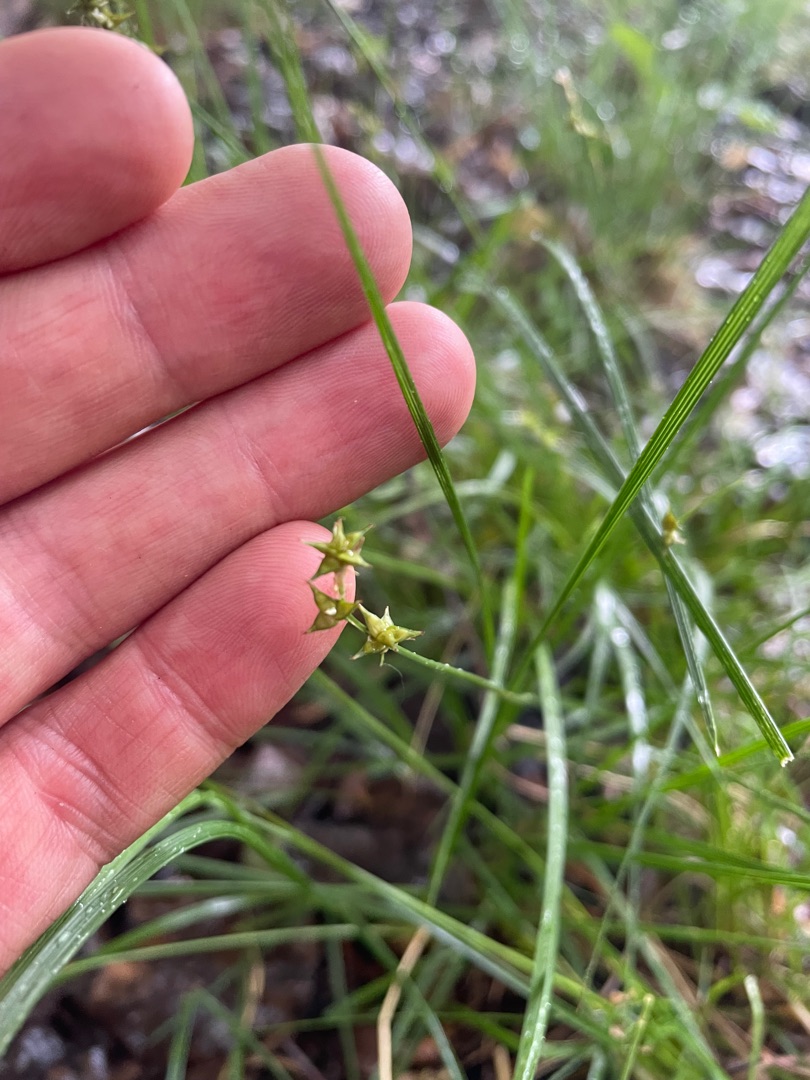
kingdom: Plantae
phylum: Tracheophyta
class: Liliopsida
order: Poales
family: Cyperaceae
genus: Carex
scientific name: Carex echinata
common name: Stjerne-star
